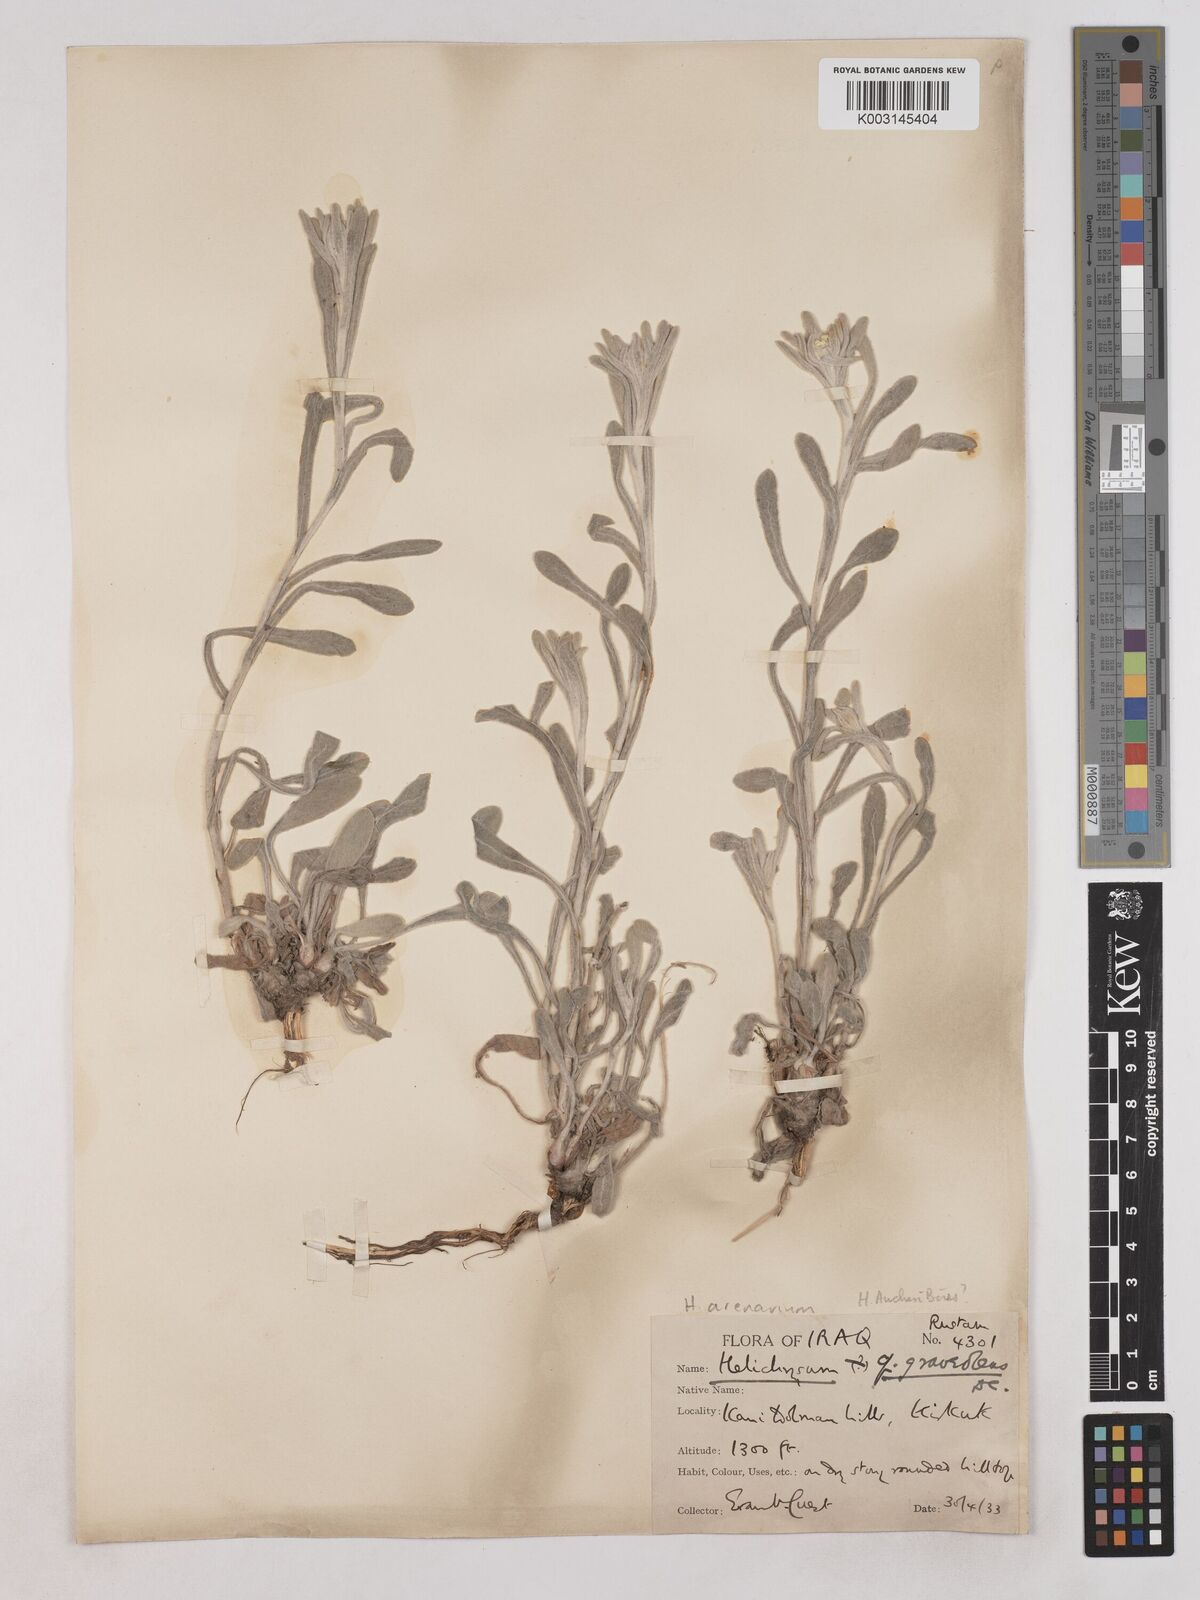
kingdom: Plantae
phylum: Tracheophyta
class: Magnoliopsida
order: Asterales
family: Asteraceae
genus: Helichrysum
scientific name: Helichrysum arenarium
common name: Strawflower
